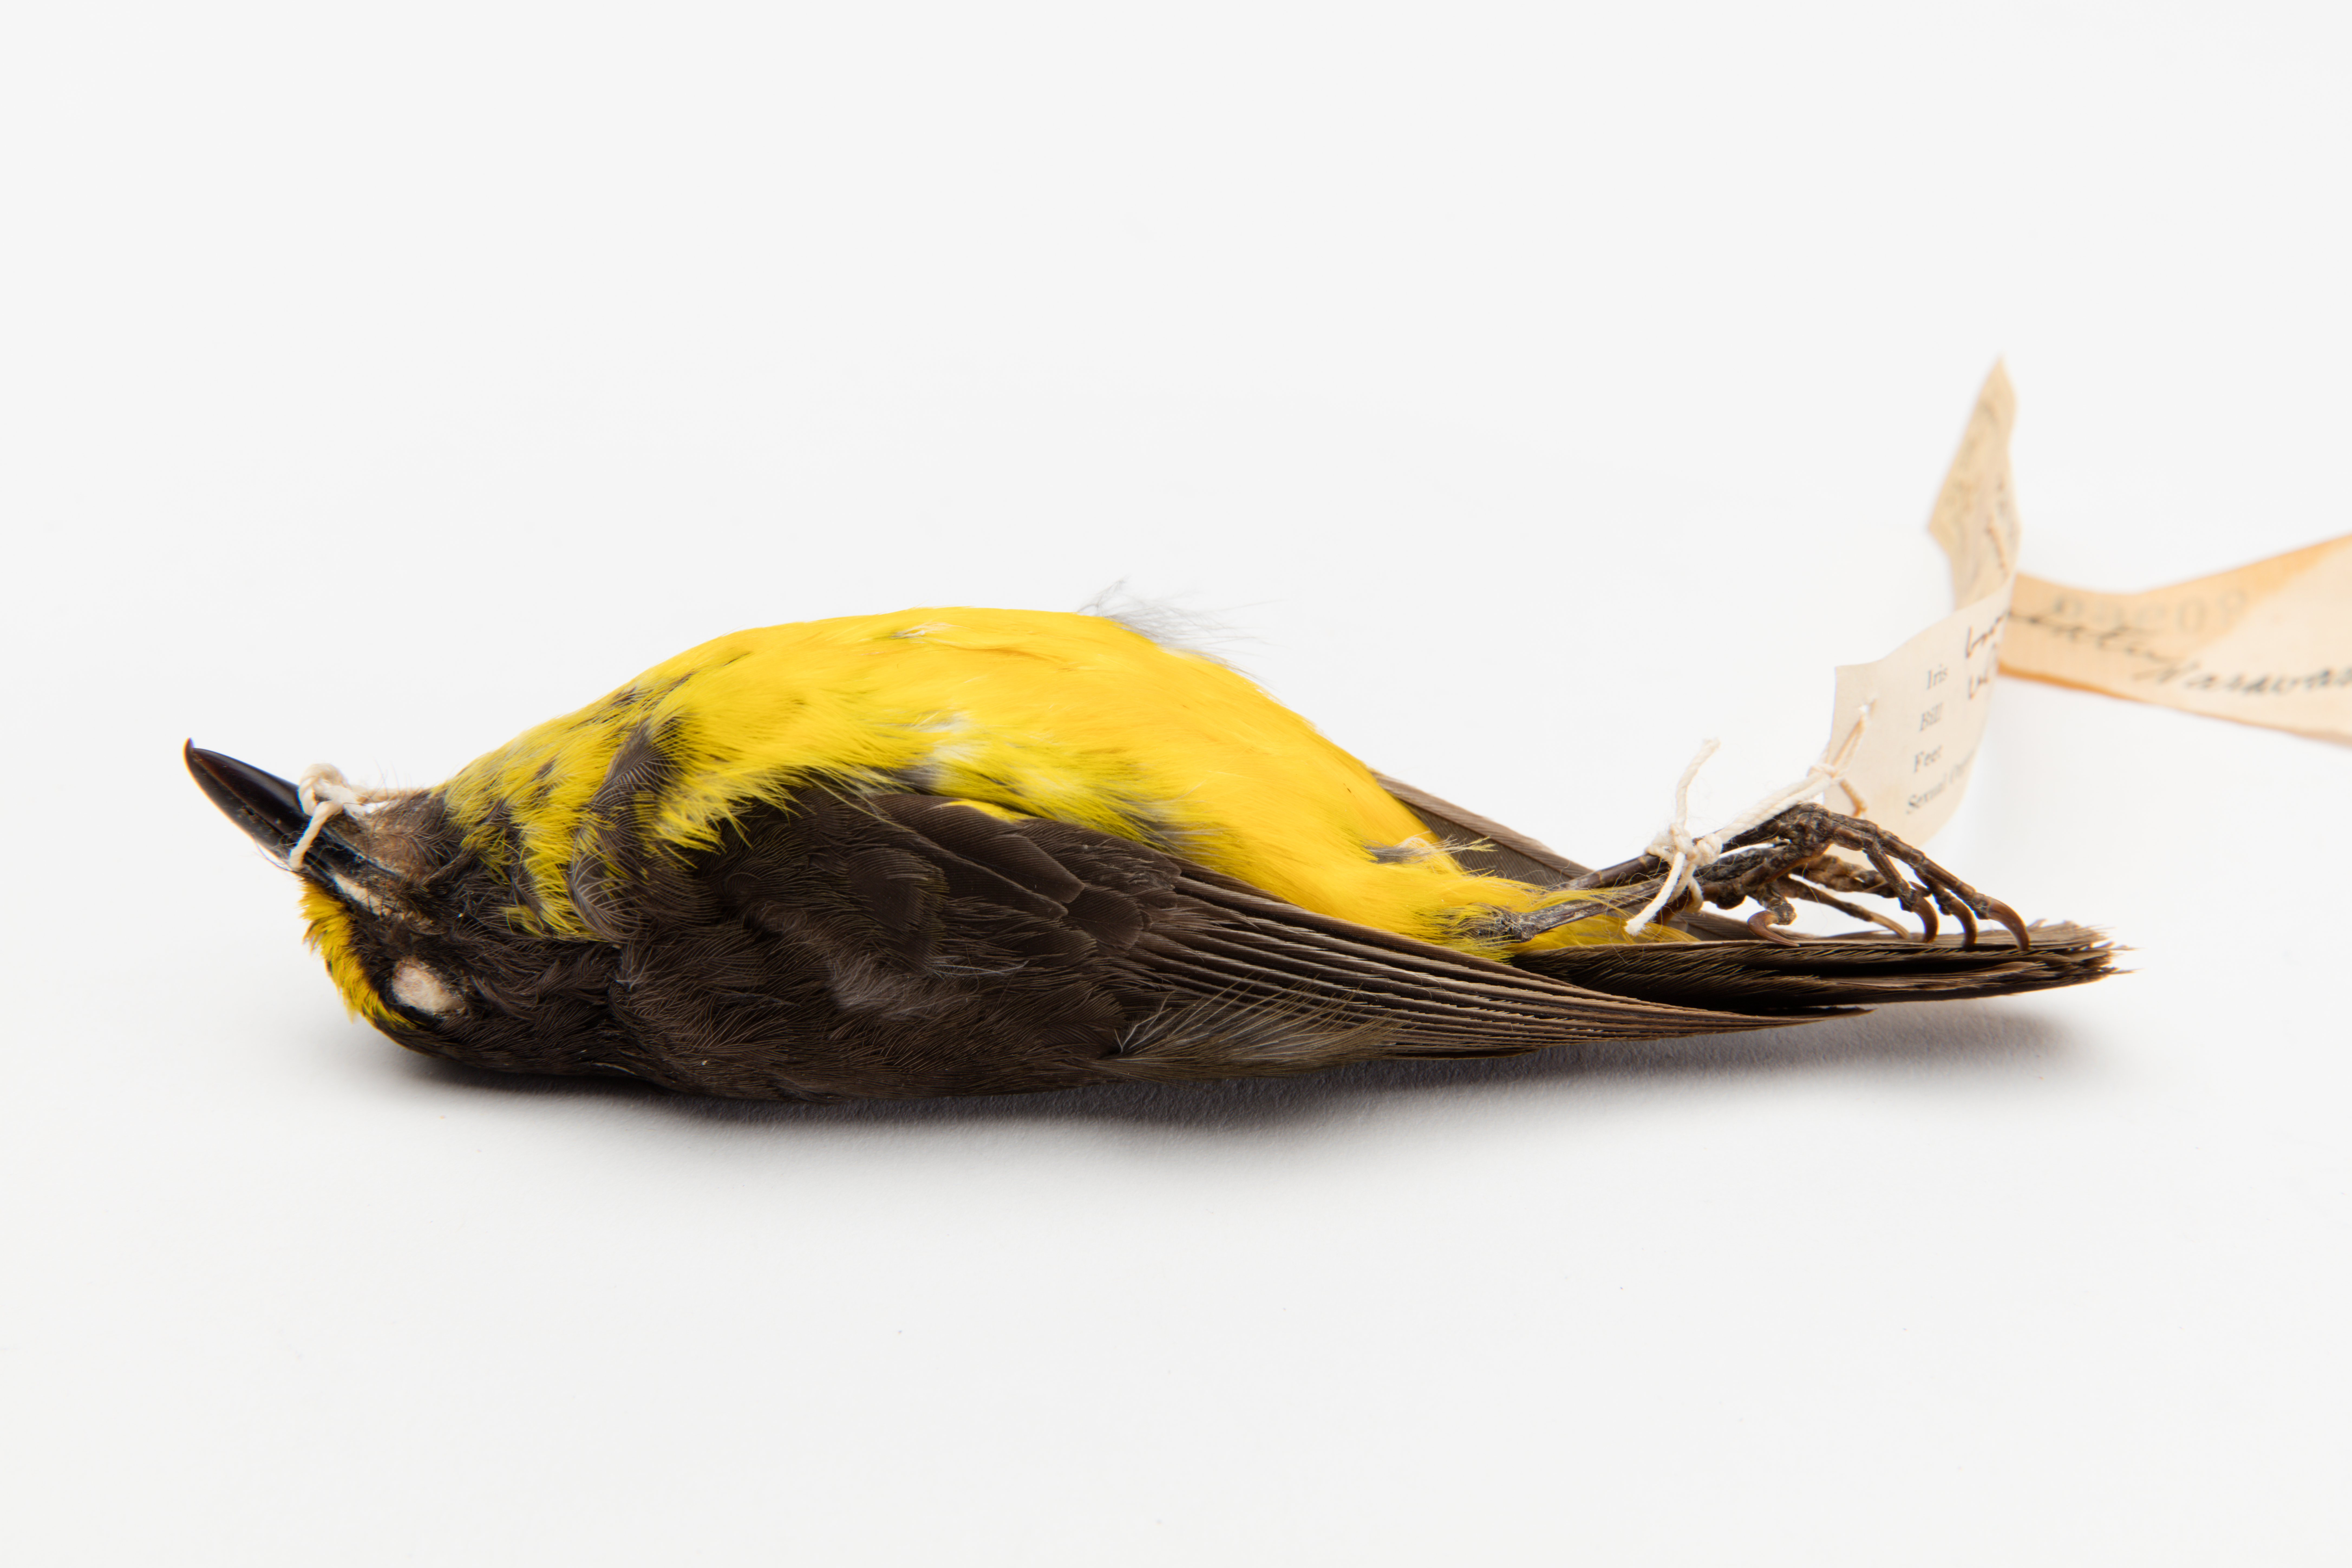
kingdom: Animalia
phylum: Chordata
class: Aves
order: Passeriformes
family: Pachycephalidae
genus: Pachycephala
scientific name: Pachycephala flavifrons
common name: Samoan whistler
